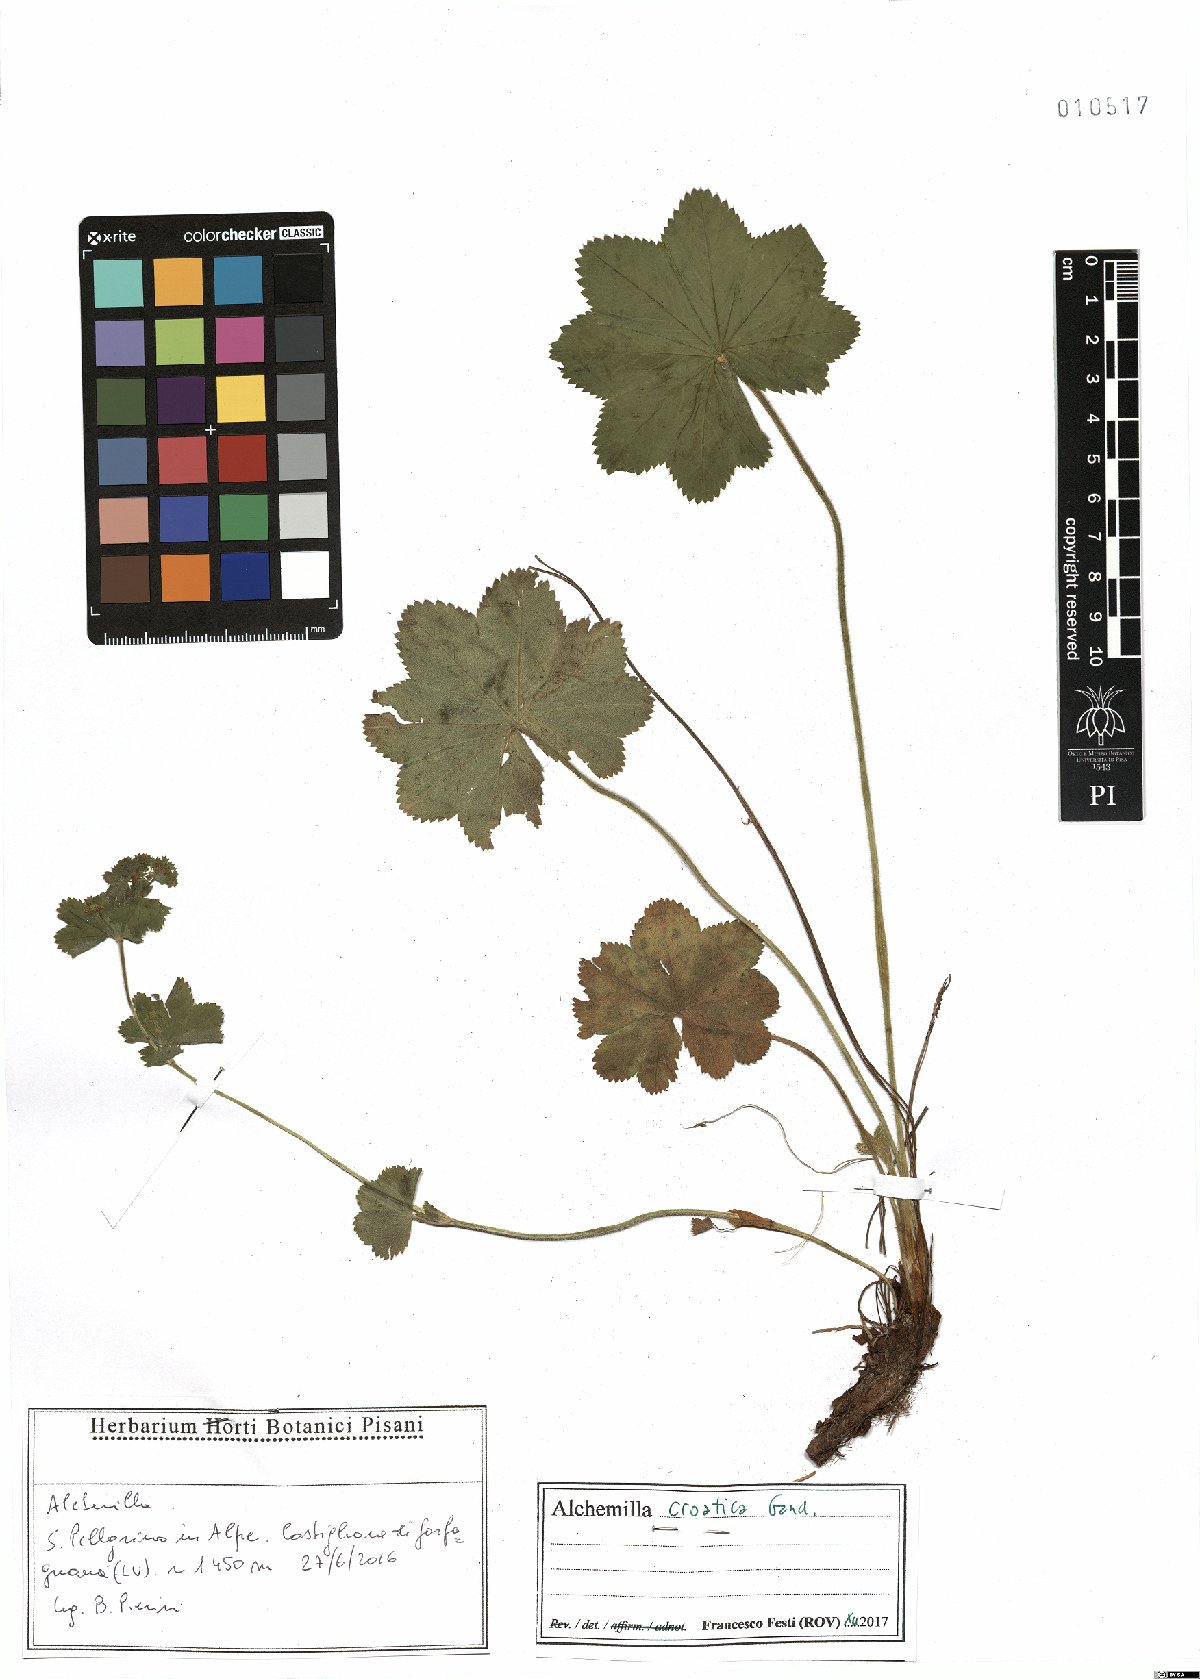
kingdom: Plantae
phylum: Tracheophyta
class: Magnoliopsida
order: Rosales
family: Rosaceae
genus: Alchemilla
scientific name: Alchemilla croatica
